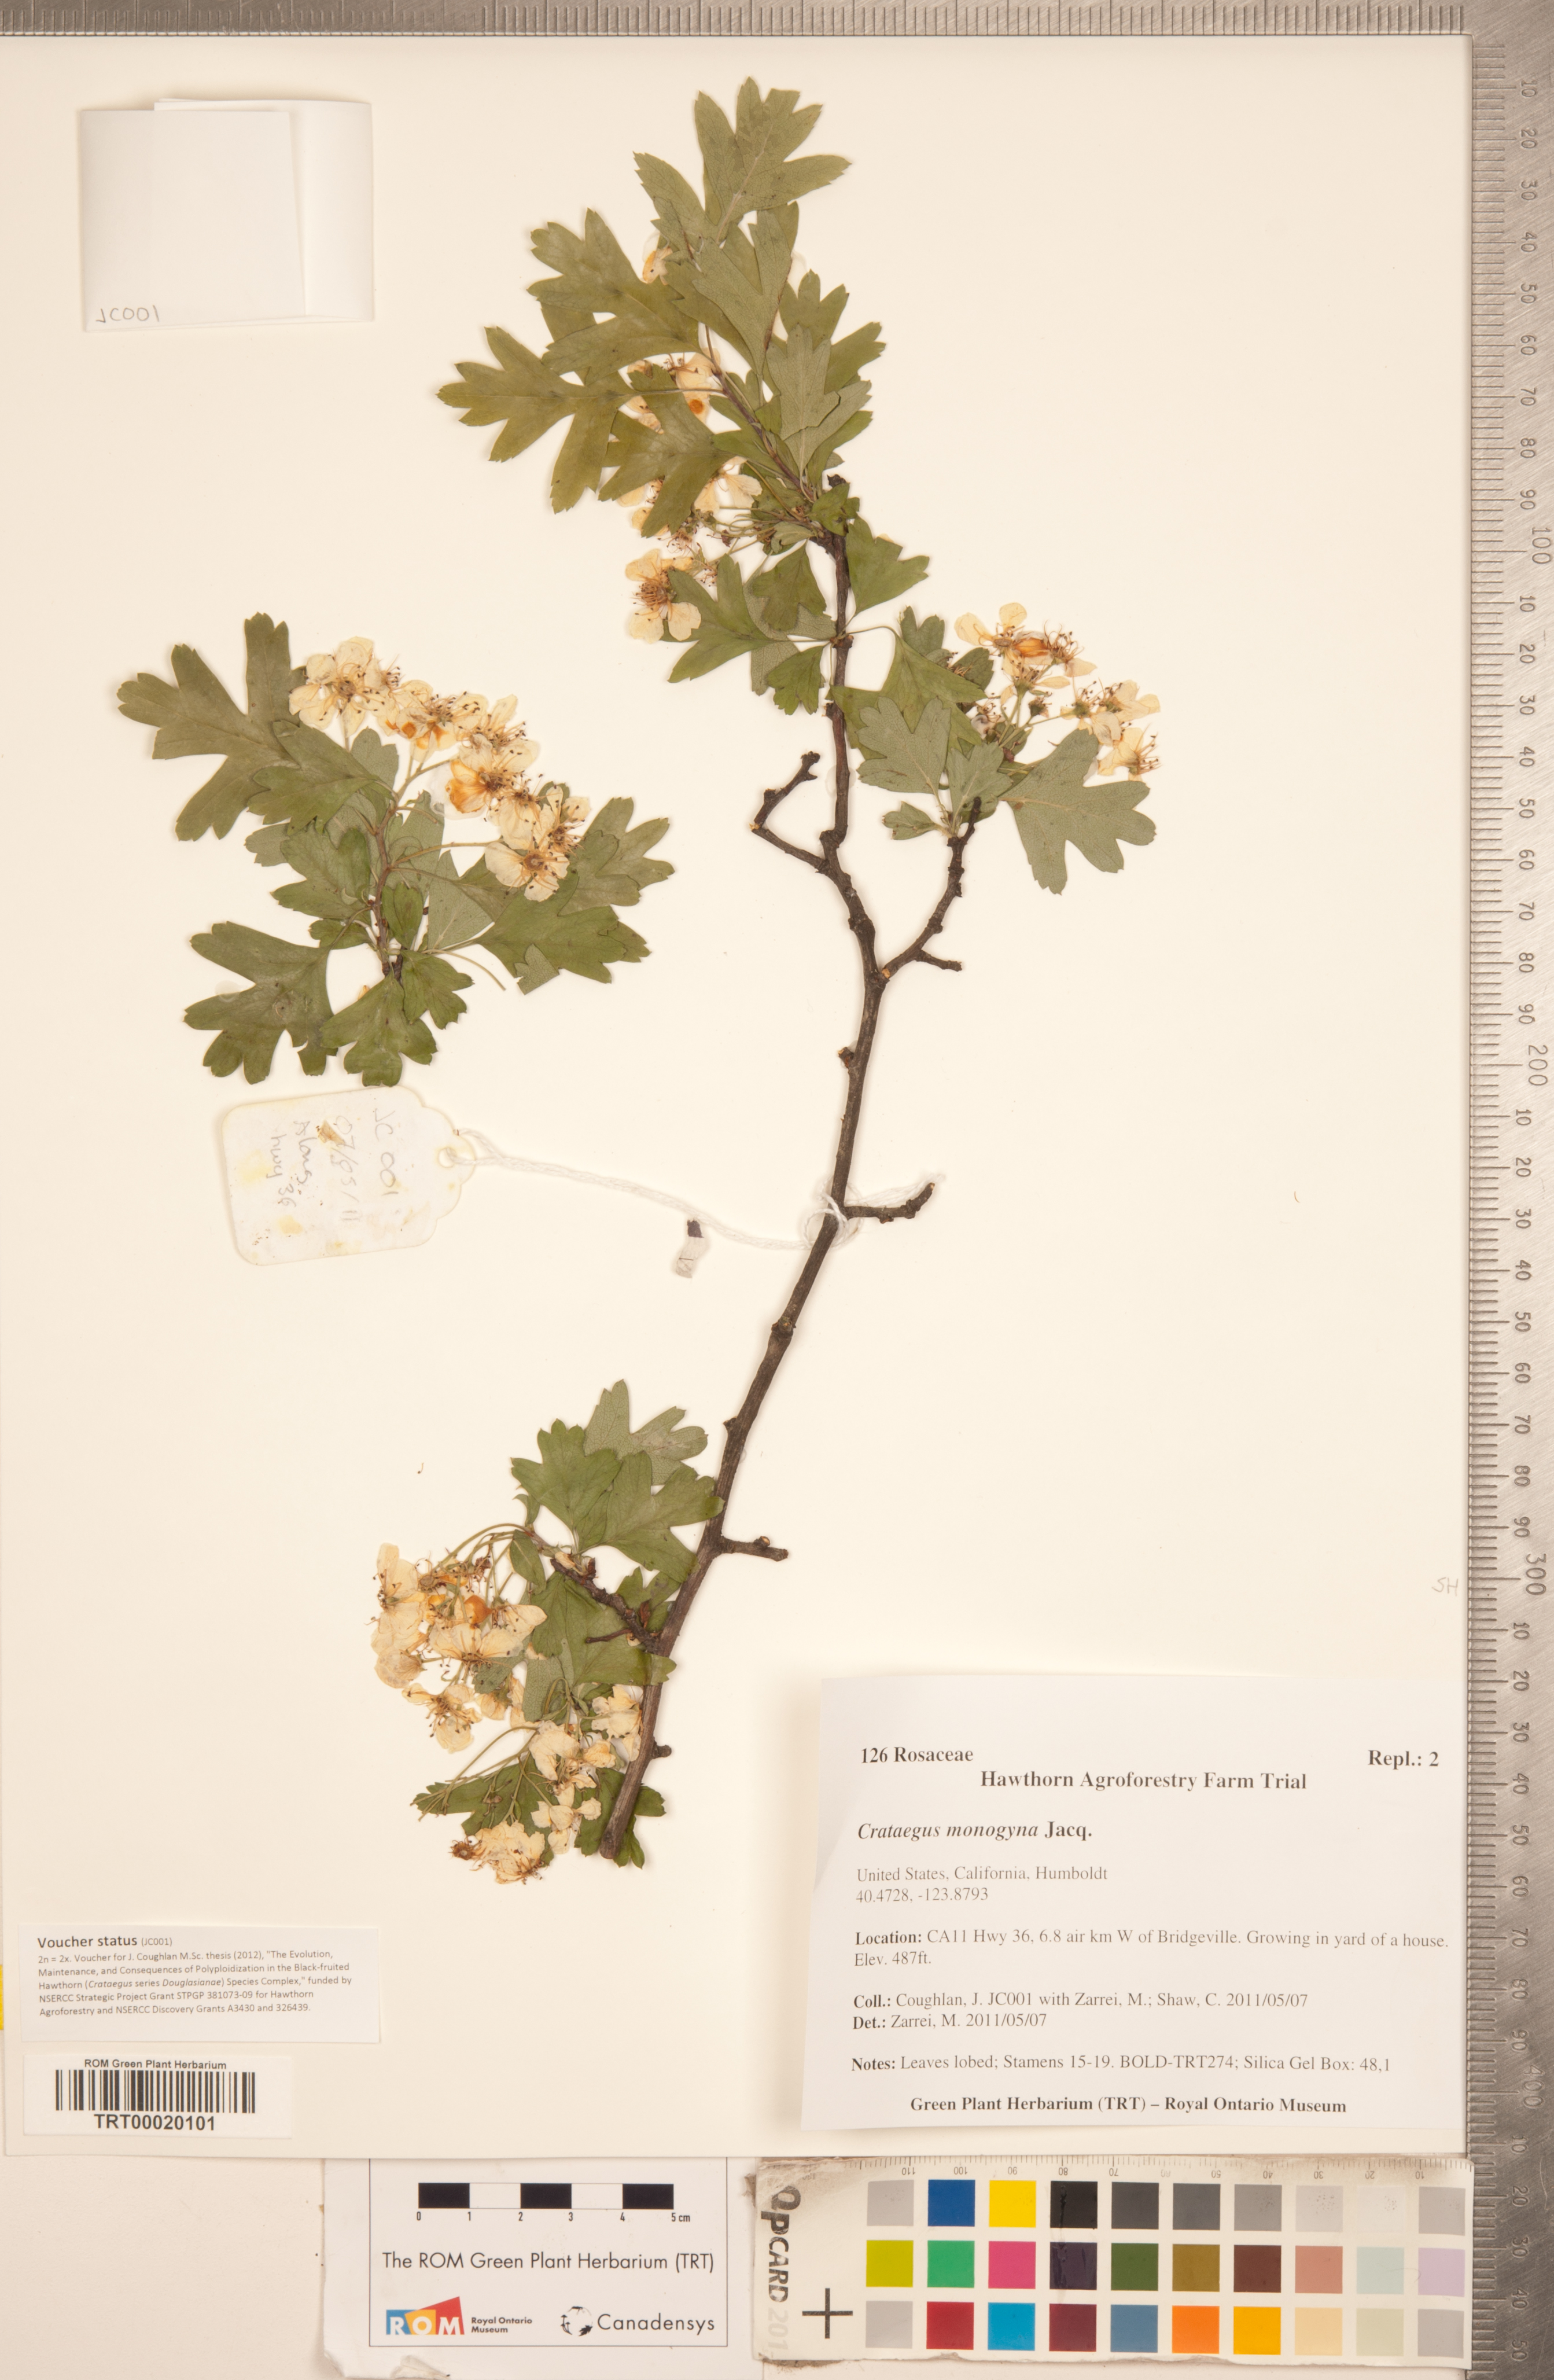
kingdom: Plantae
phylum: Tracheophyta
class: Magnoliopsida
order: Rosales
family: Rosaceae
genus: Crataegus
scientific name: Crataegus monogyna
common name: Hawthorn
